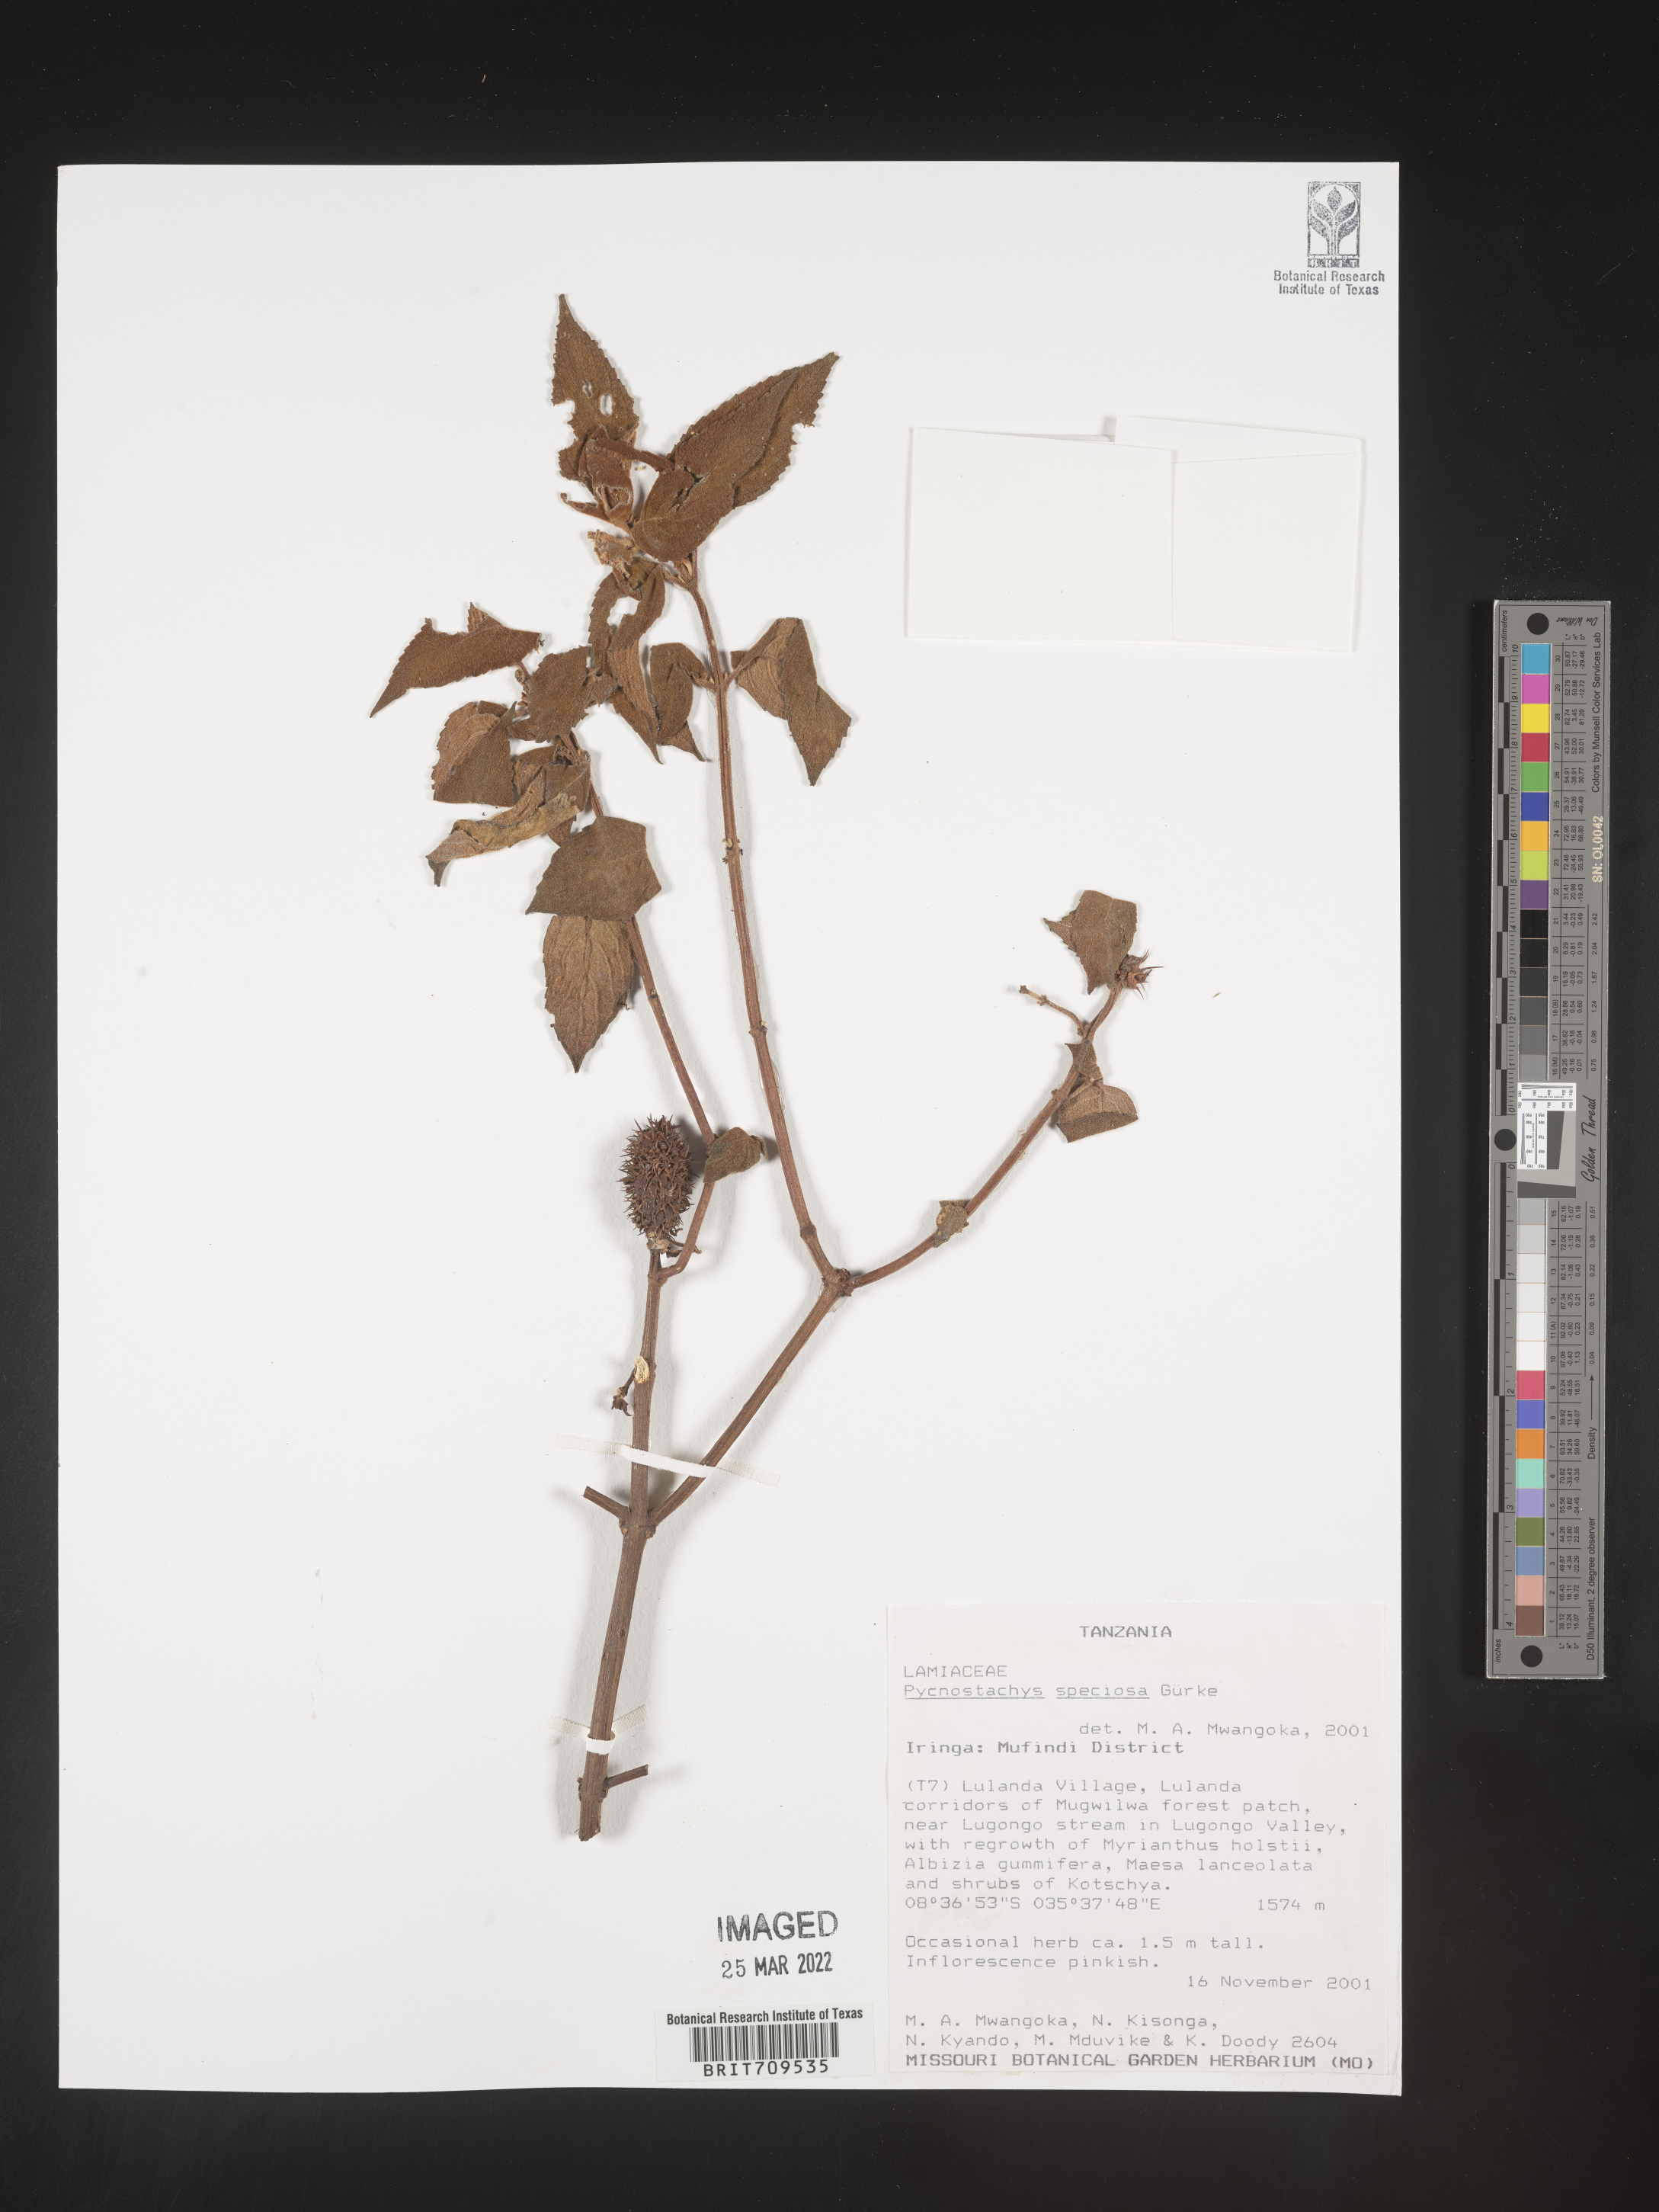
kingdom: Plantae
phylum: Tracheophyta
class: Magnoliopsida
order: Lamiales
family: Lamiaceae
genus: Coleus
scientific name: Coleus
